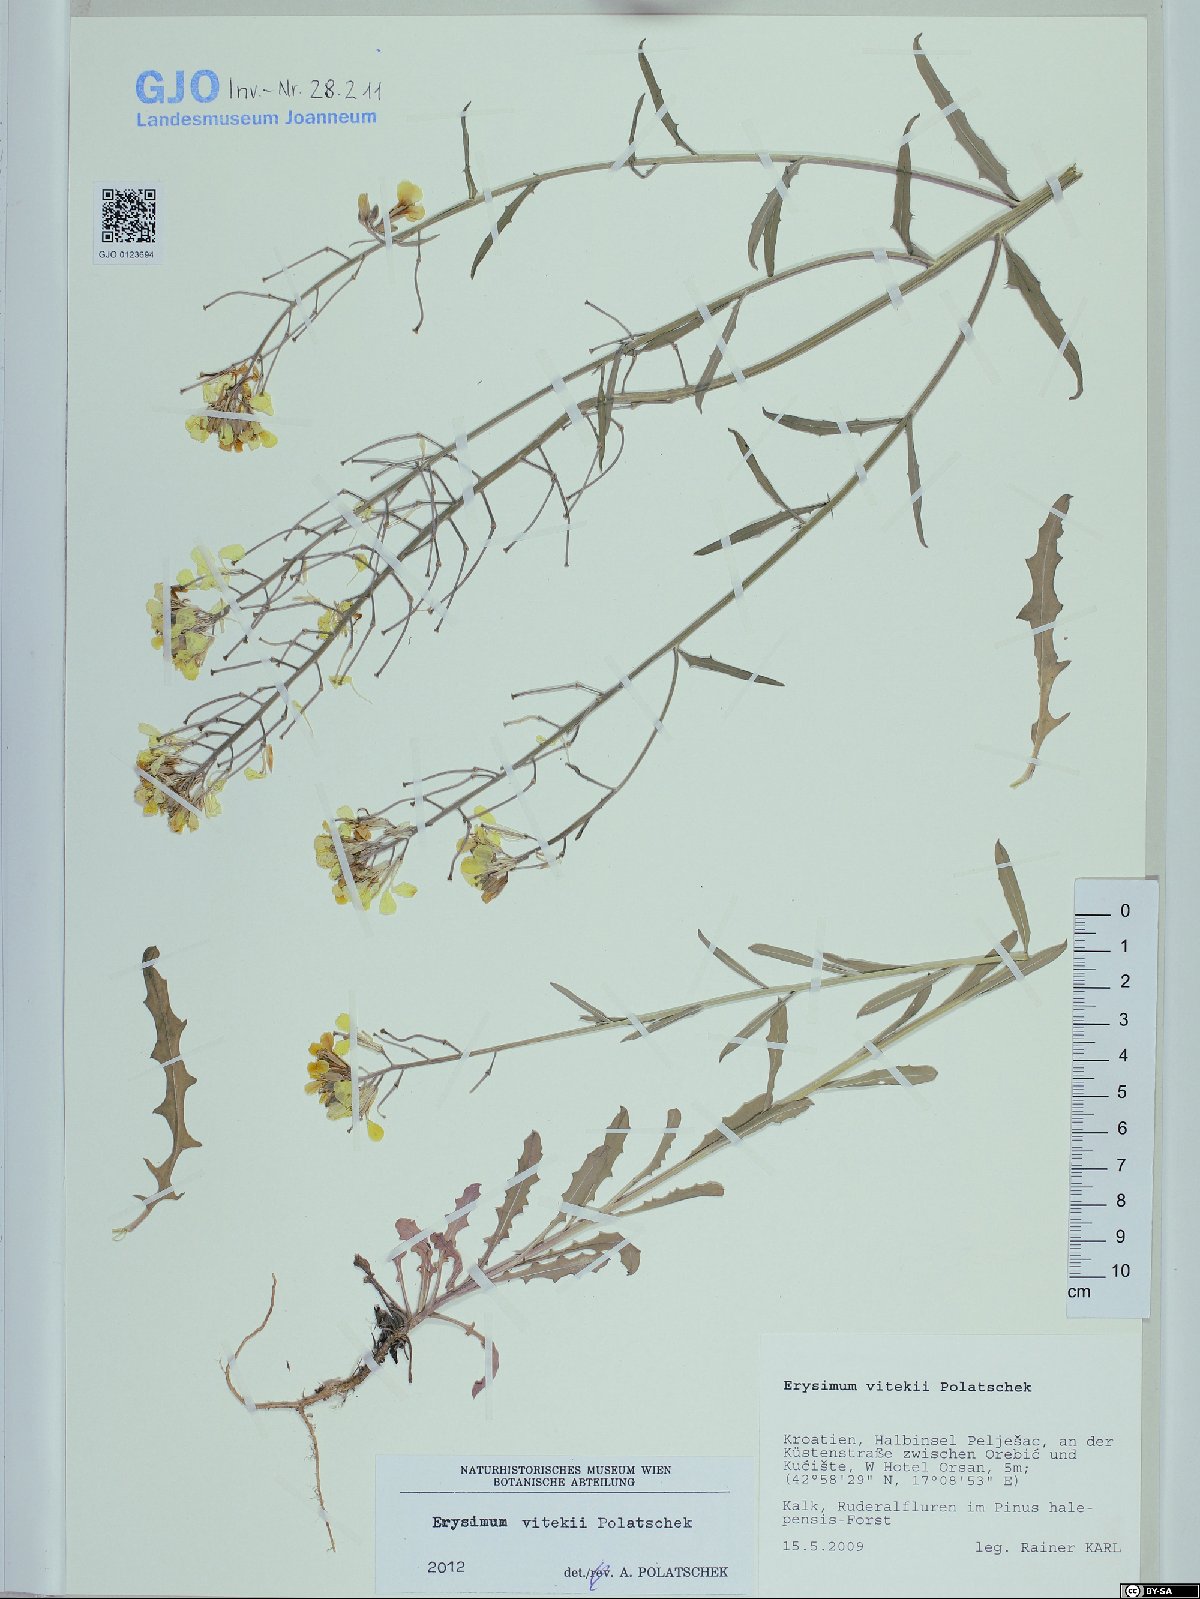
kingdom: Plantae
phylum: Tracheophyta
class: Magnoliopsida
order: Brassicales
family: Brassicaceae
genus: Erysimum
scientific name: Erysimum vitekii
